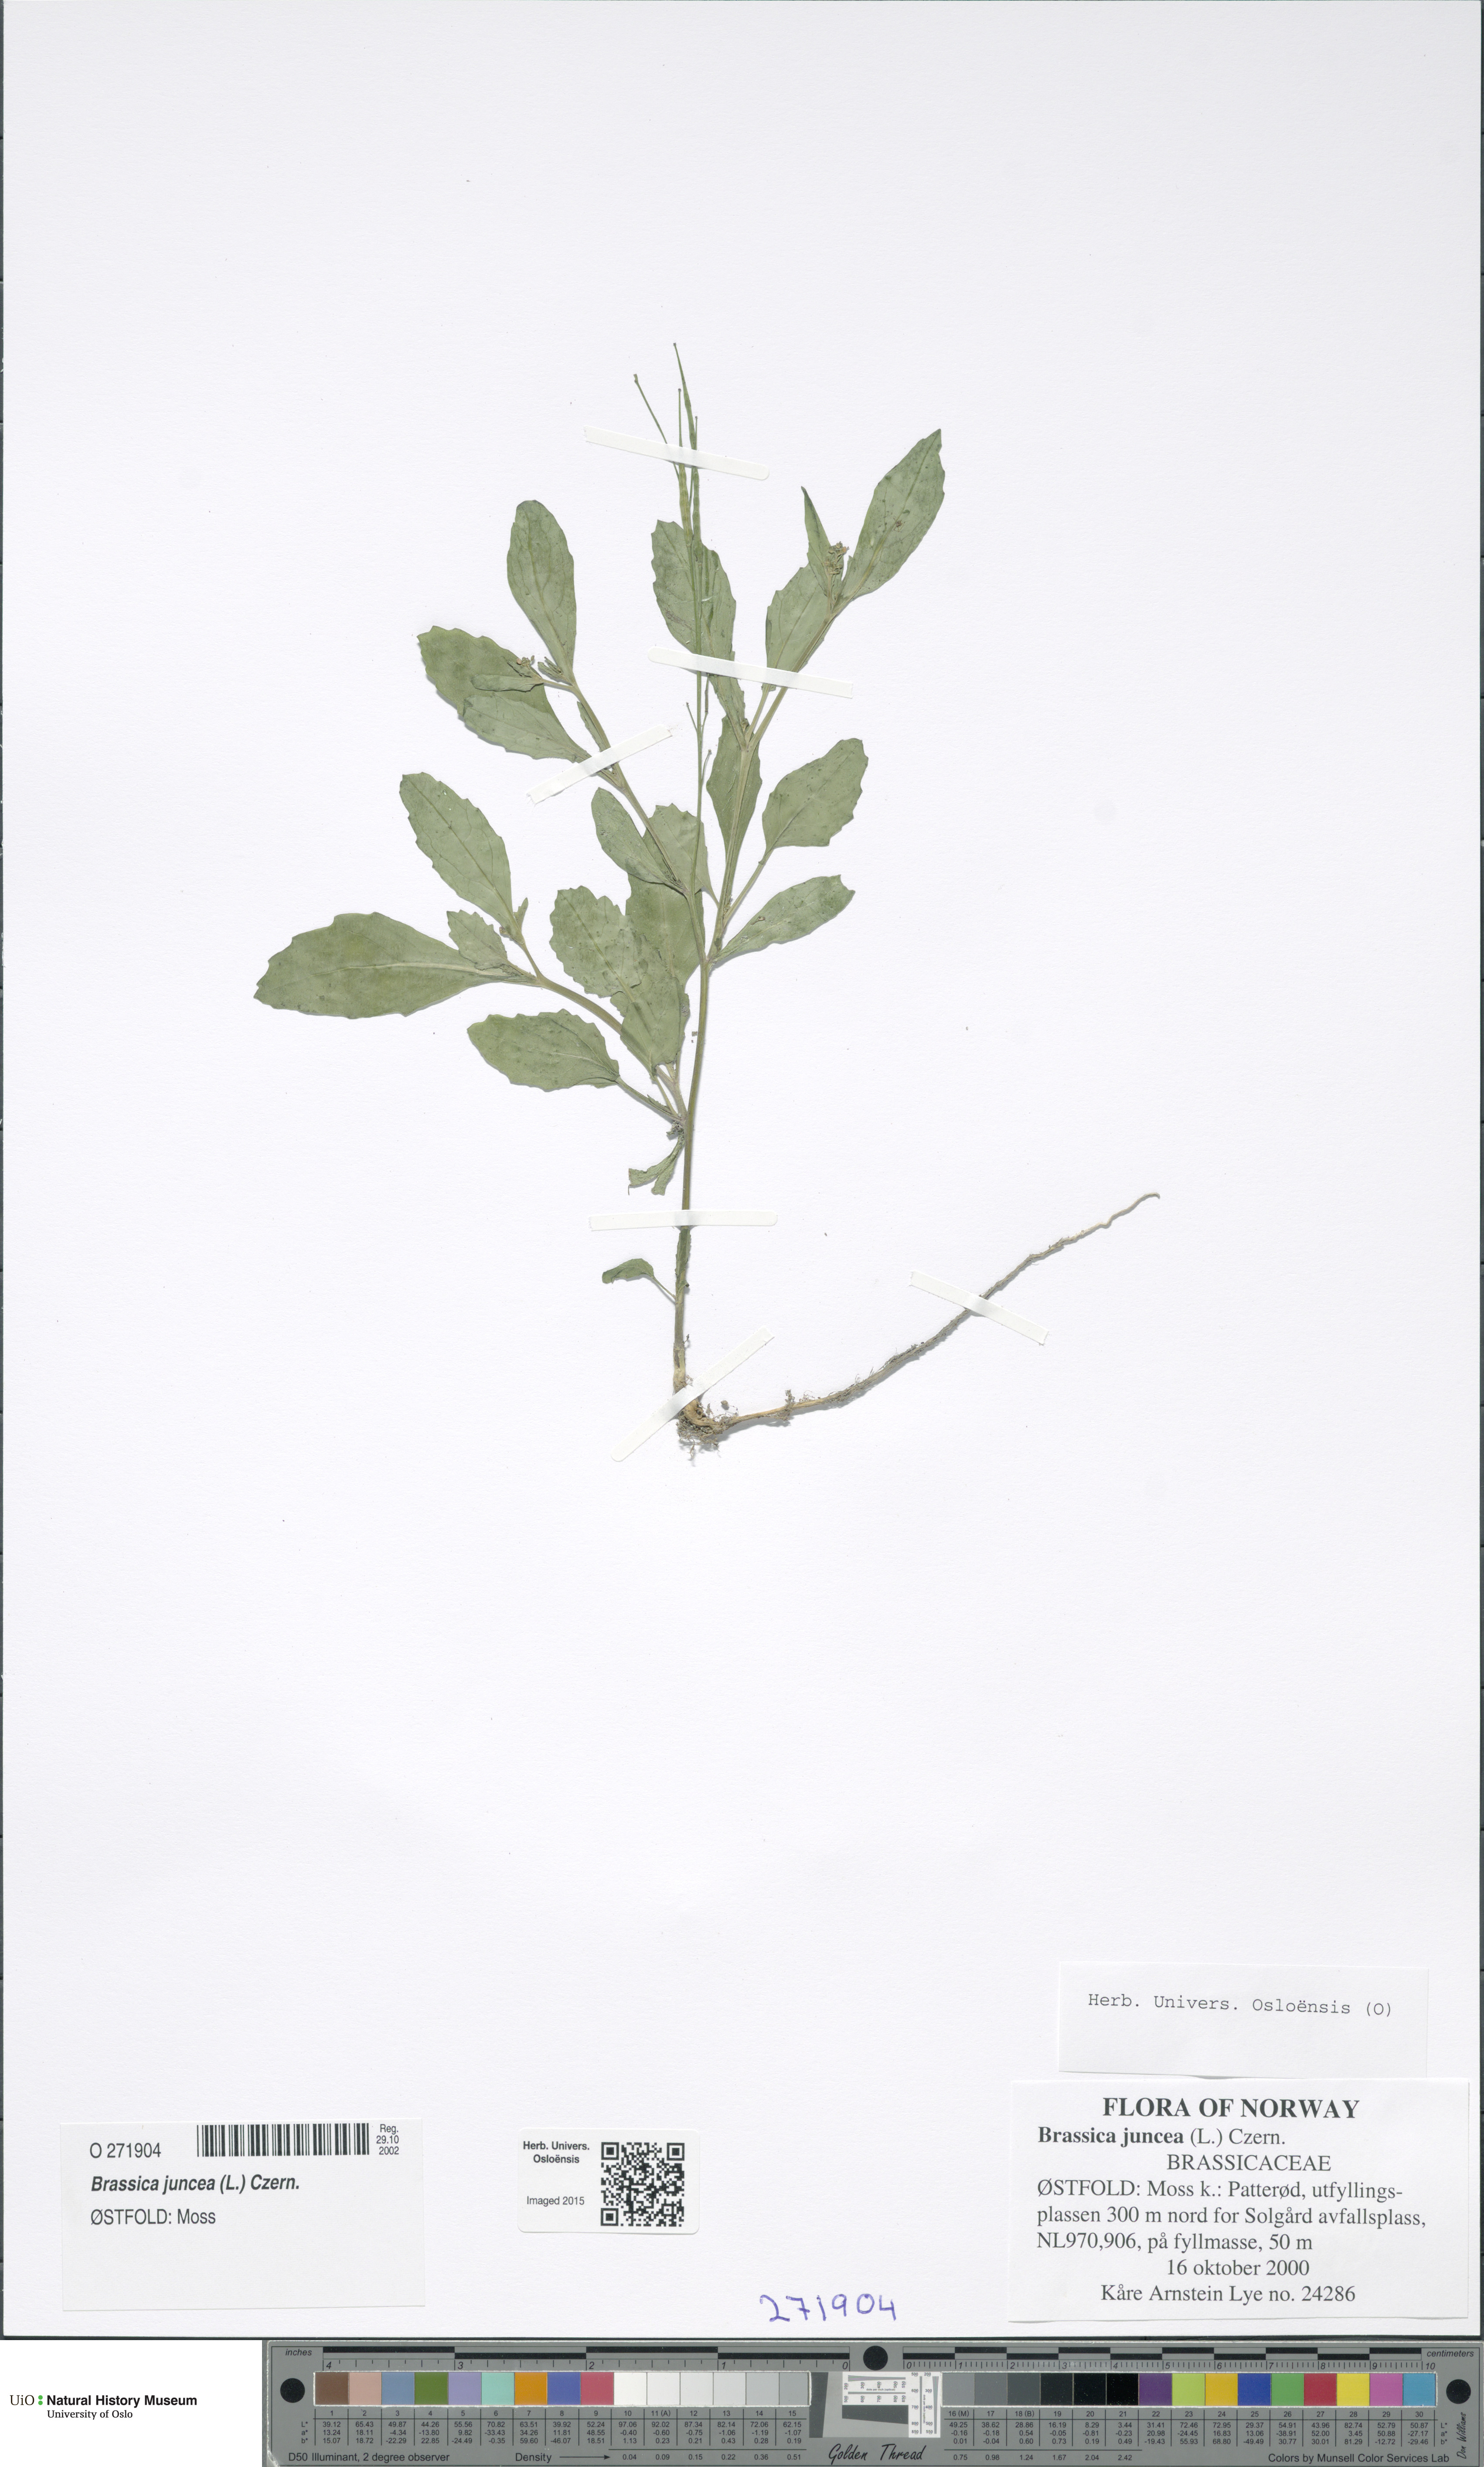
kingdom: Plantae
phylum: Tracheophyta
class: Magnoliopsida
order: Brassicales
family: Brassicaceae
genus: Brassica
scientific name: Brassica juncea
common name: Brown mustard
